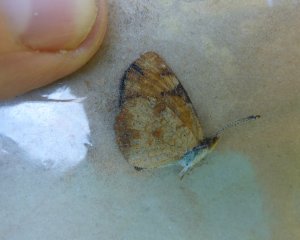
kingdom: Animalia
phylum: Arthropoda
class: Insecta
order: Lepidoptera
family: Nymphalidae
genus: Phyciodes
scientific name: Phyciodes tharos
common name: Northern Crescent
